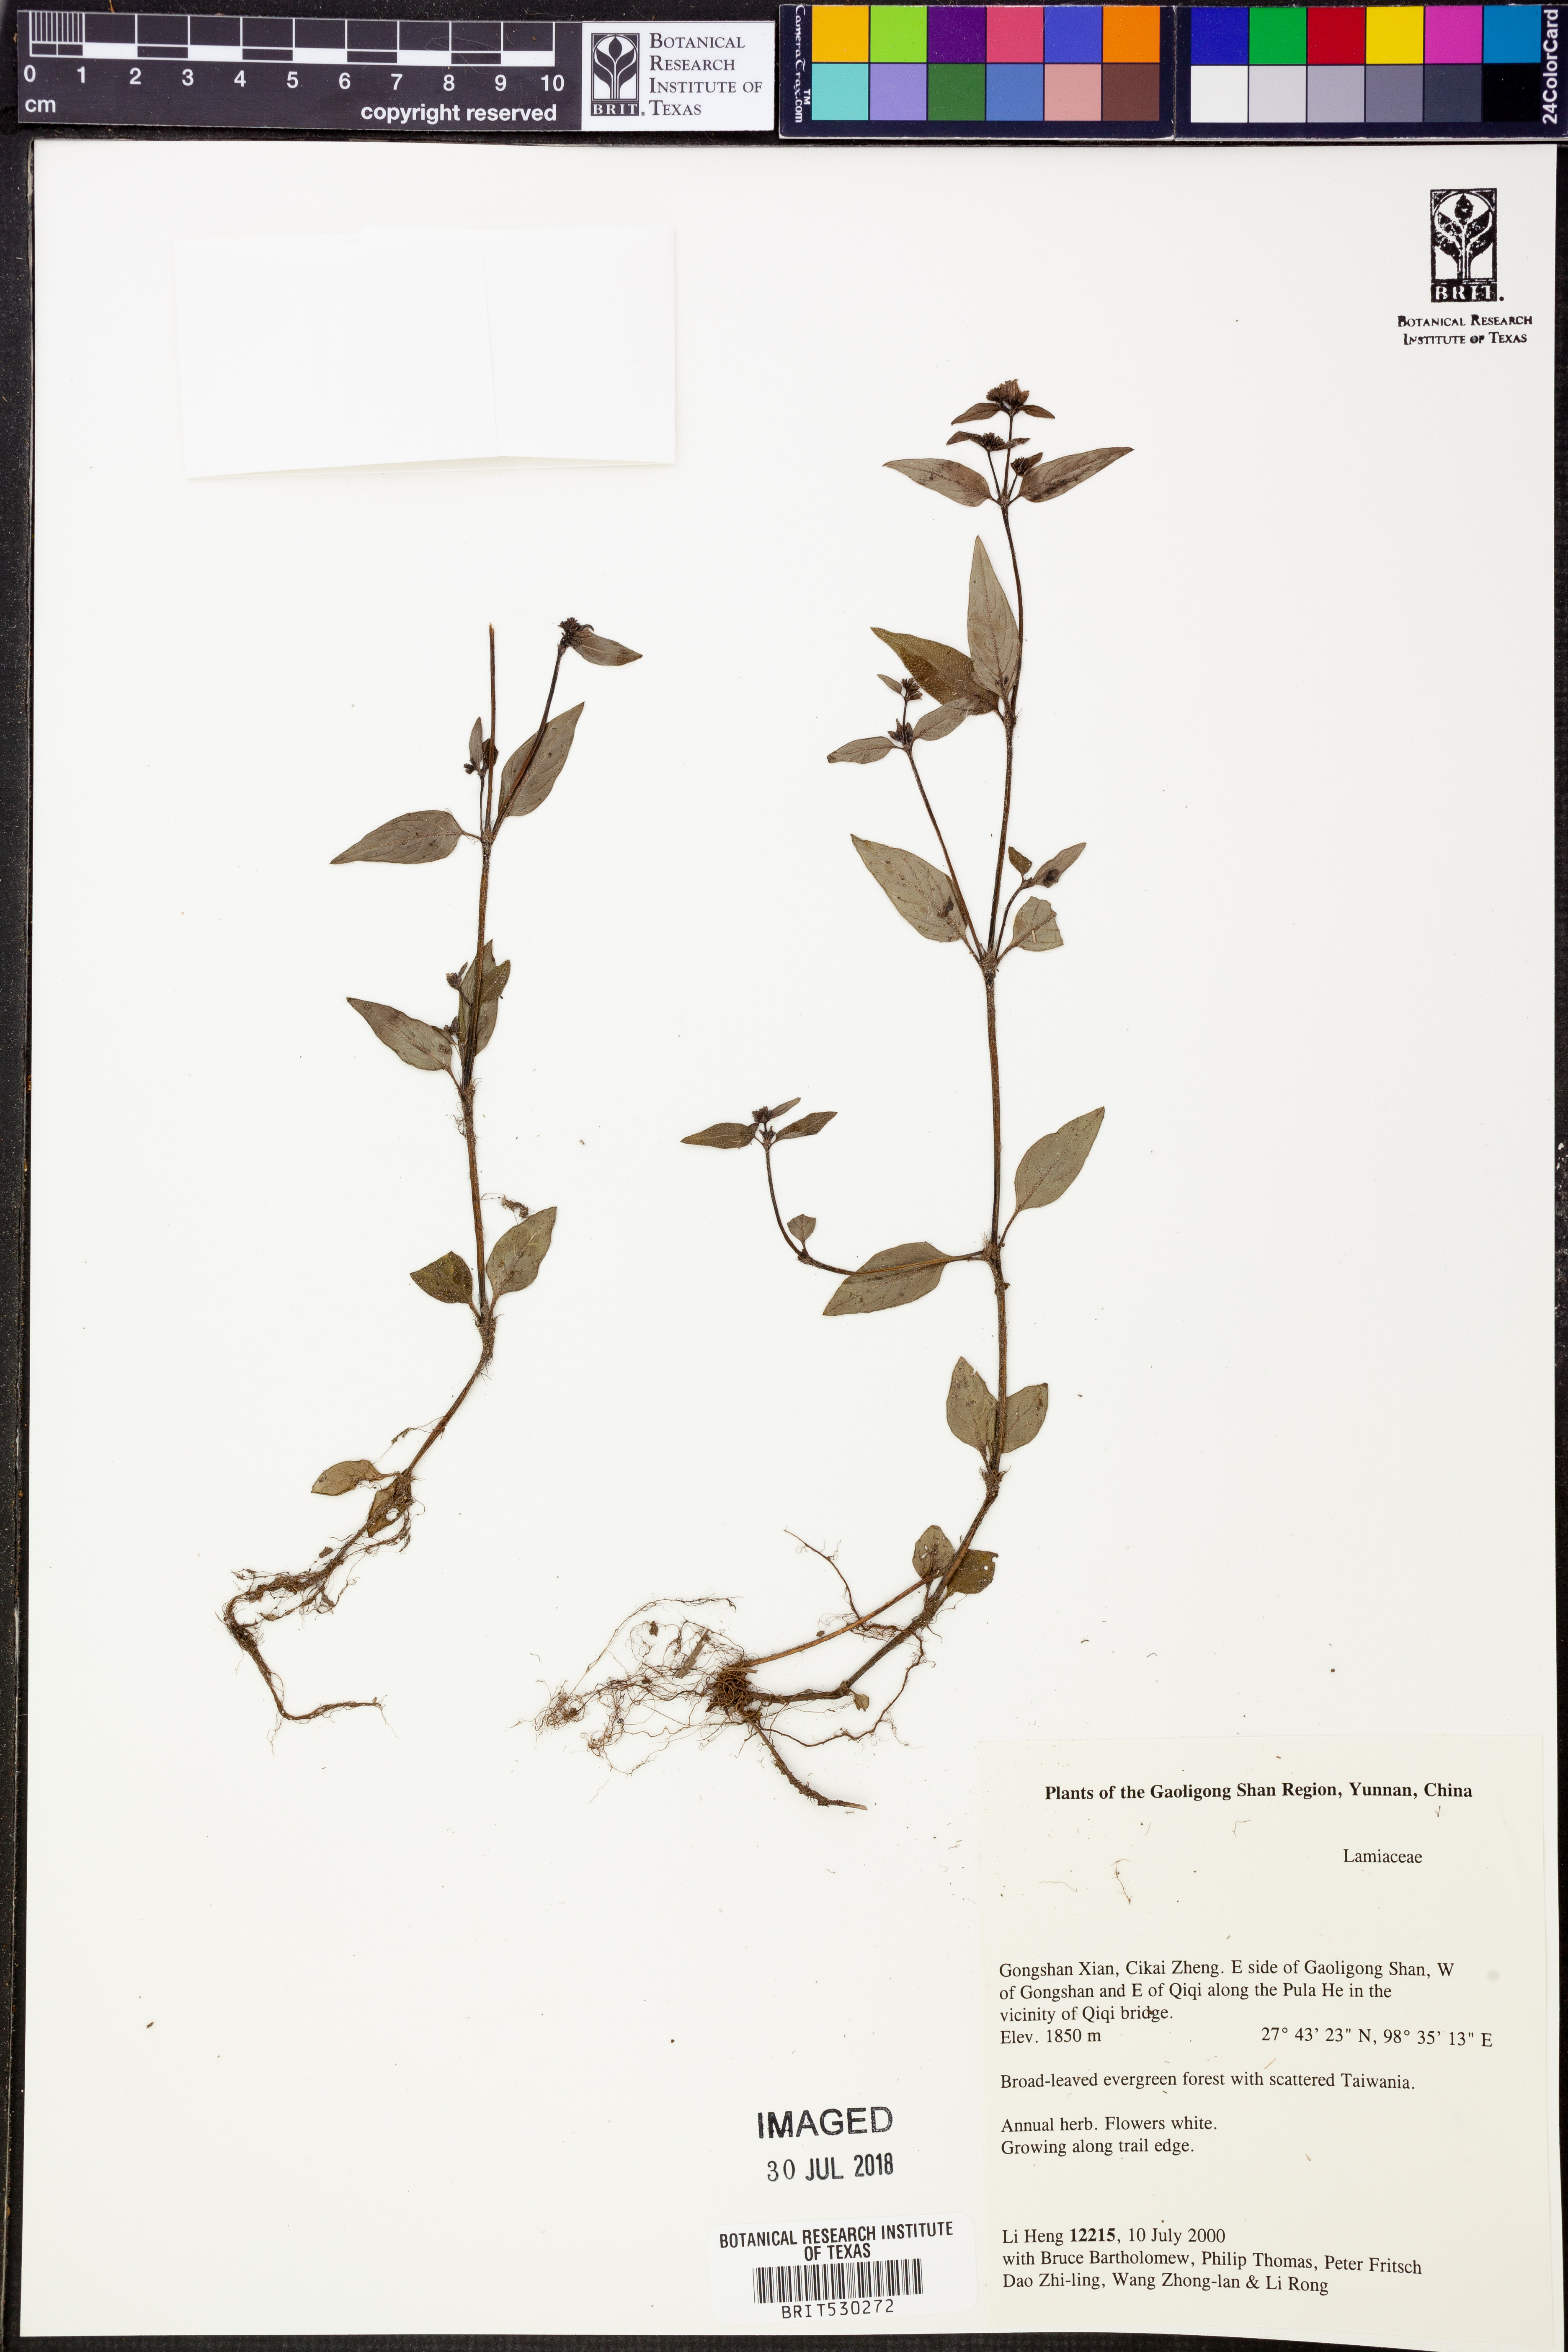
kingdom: Plantae
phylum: Tracheophyta
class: Magnoliopsida
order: Lamiales
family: Lamiaceae
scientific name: Lamiaceae
